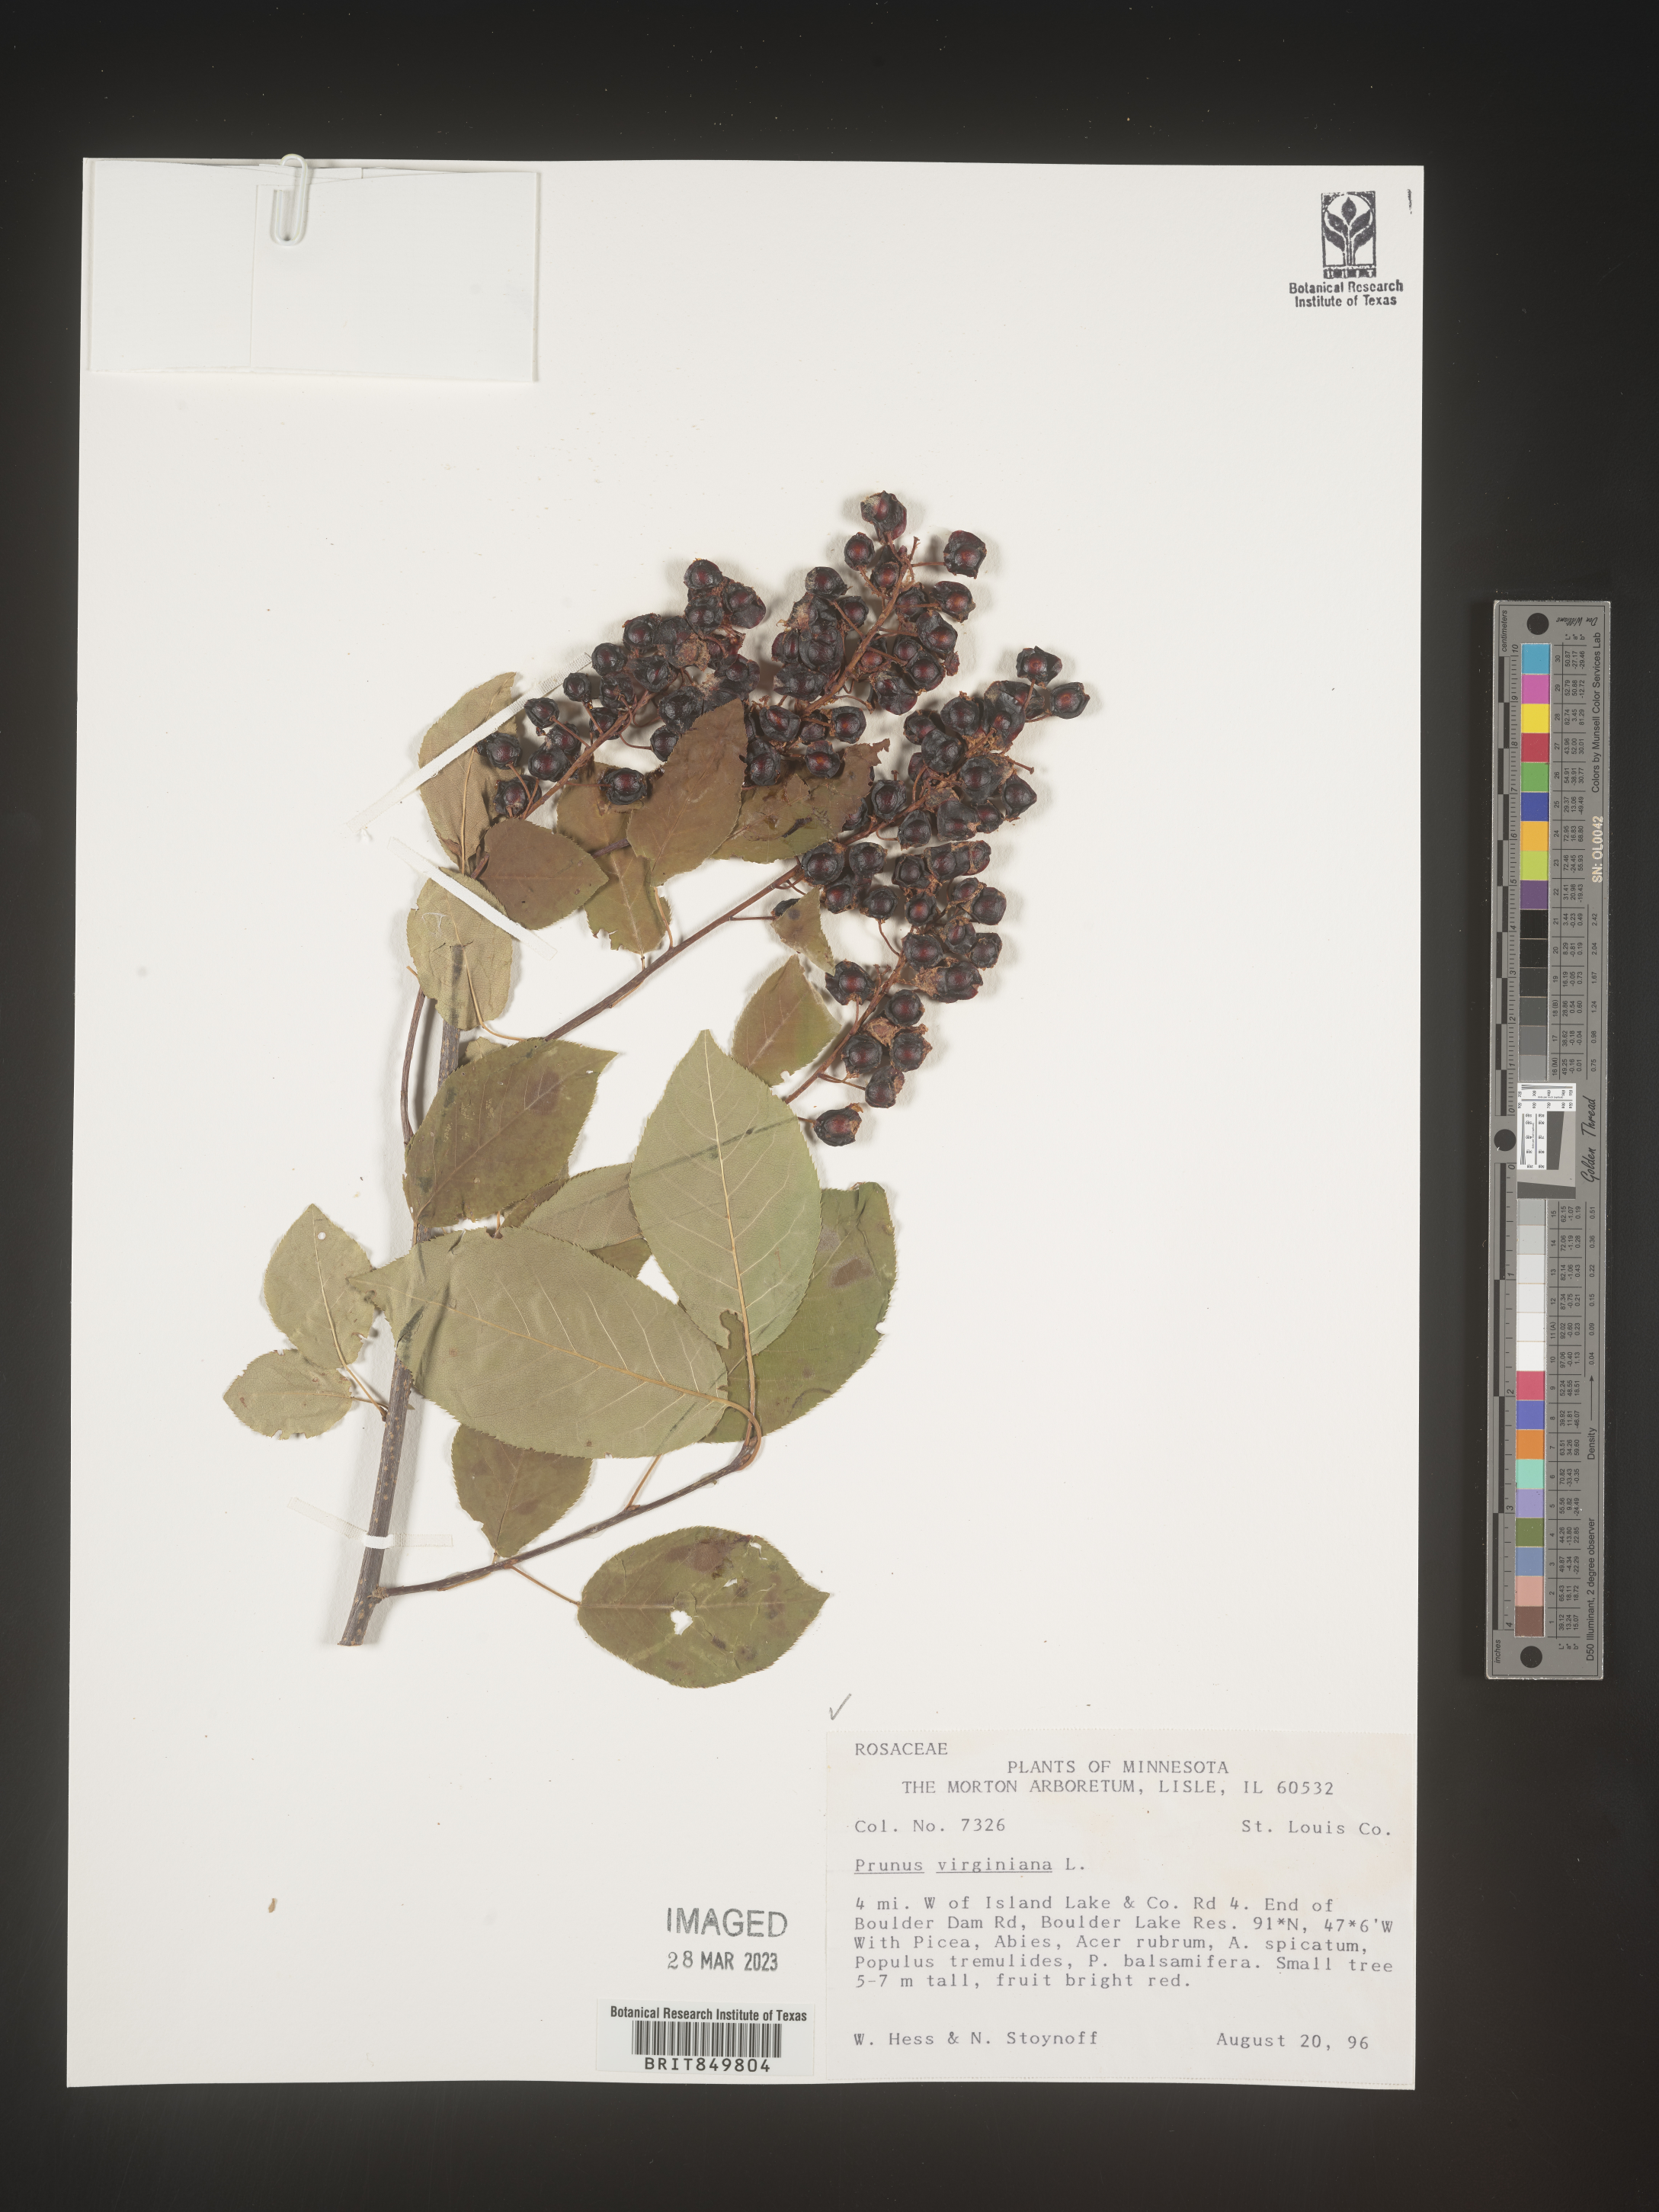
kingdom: Plantae
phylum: Tracheophyta
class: Magnoliopsida
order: Rosales
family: Rosaceae
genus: Prunus
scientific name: Prunus virginiana
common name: Chokecherry
